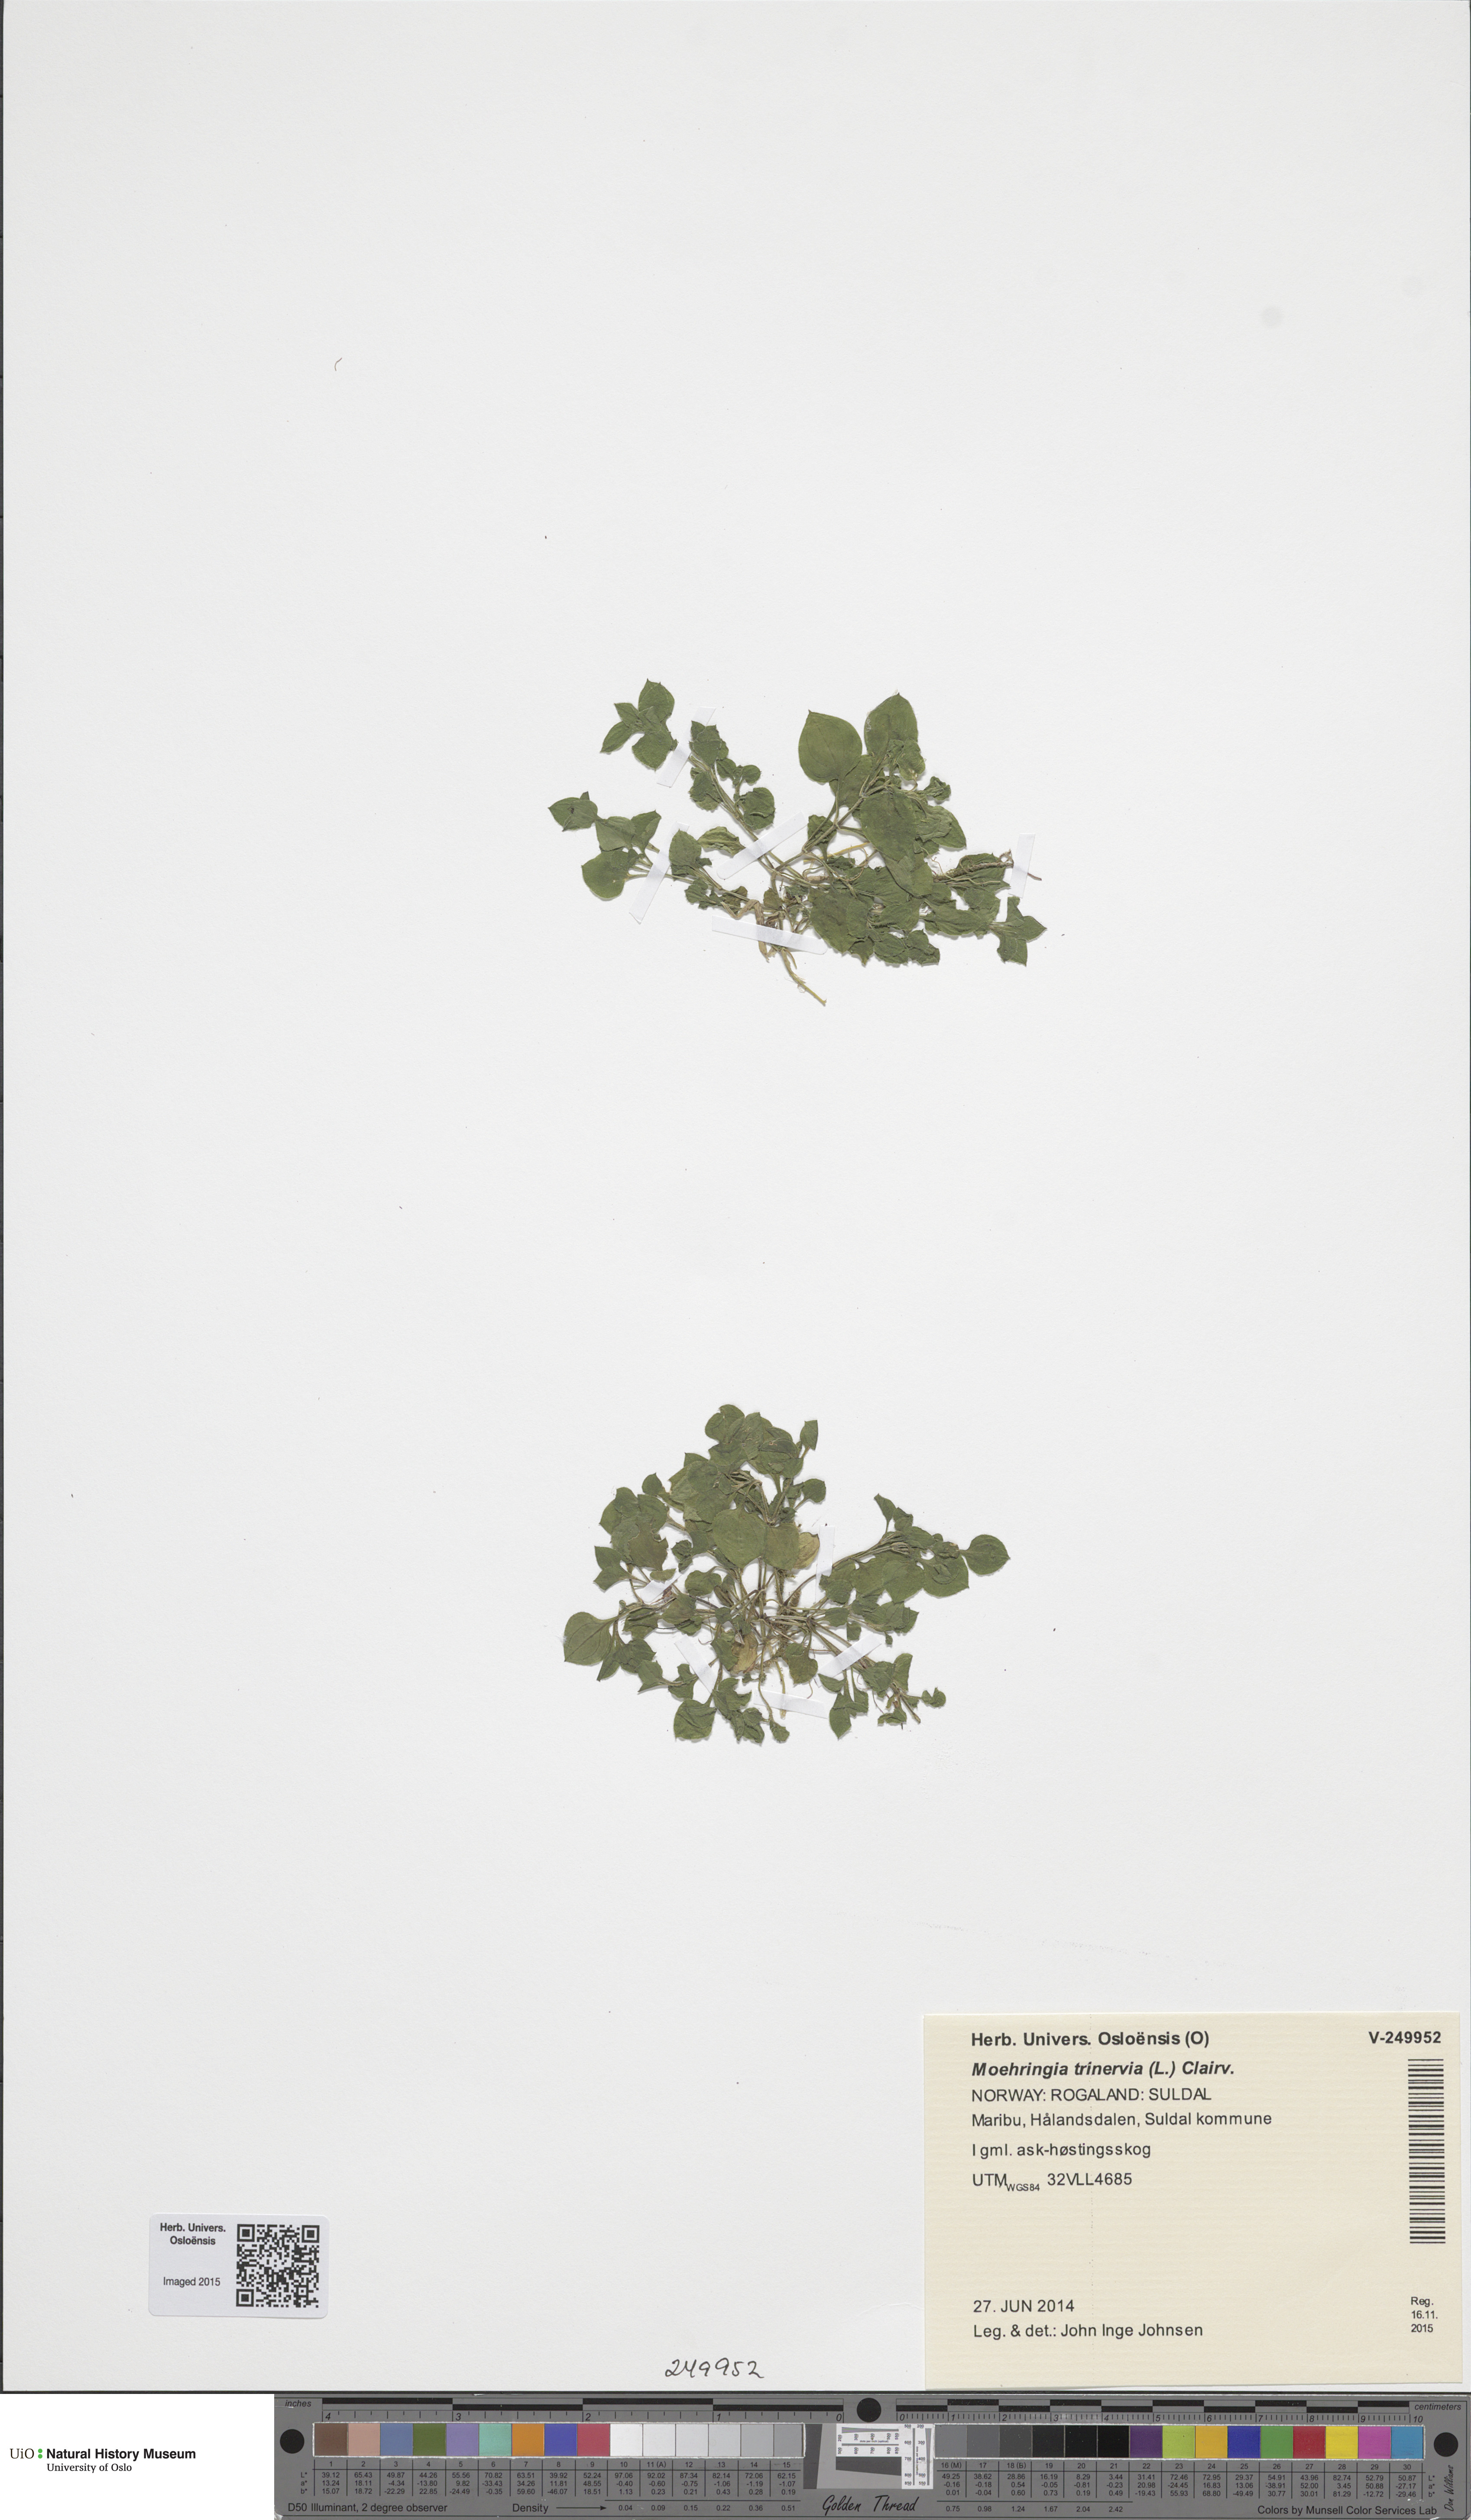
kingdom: Plantae
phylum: Tracheophyta
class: Magnoliopsida
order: Caryophyllales
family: Caryophyllaceae
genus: Moehringia
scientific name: Moehringia trinervia
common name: Three-nerved sandwort
